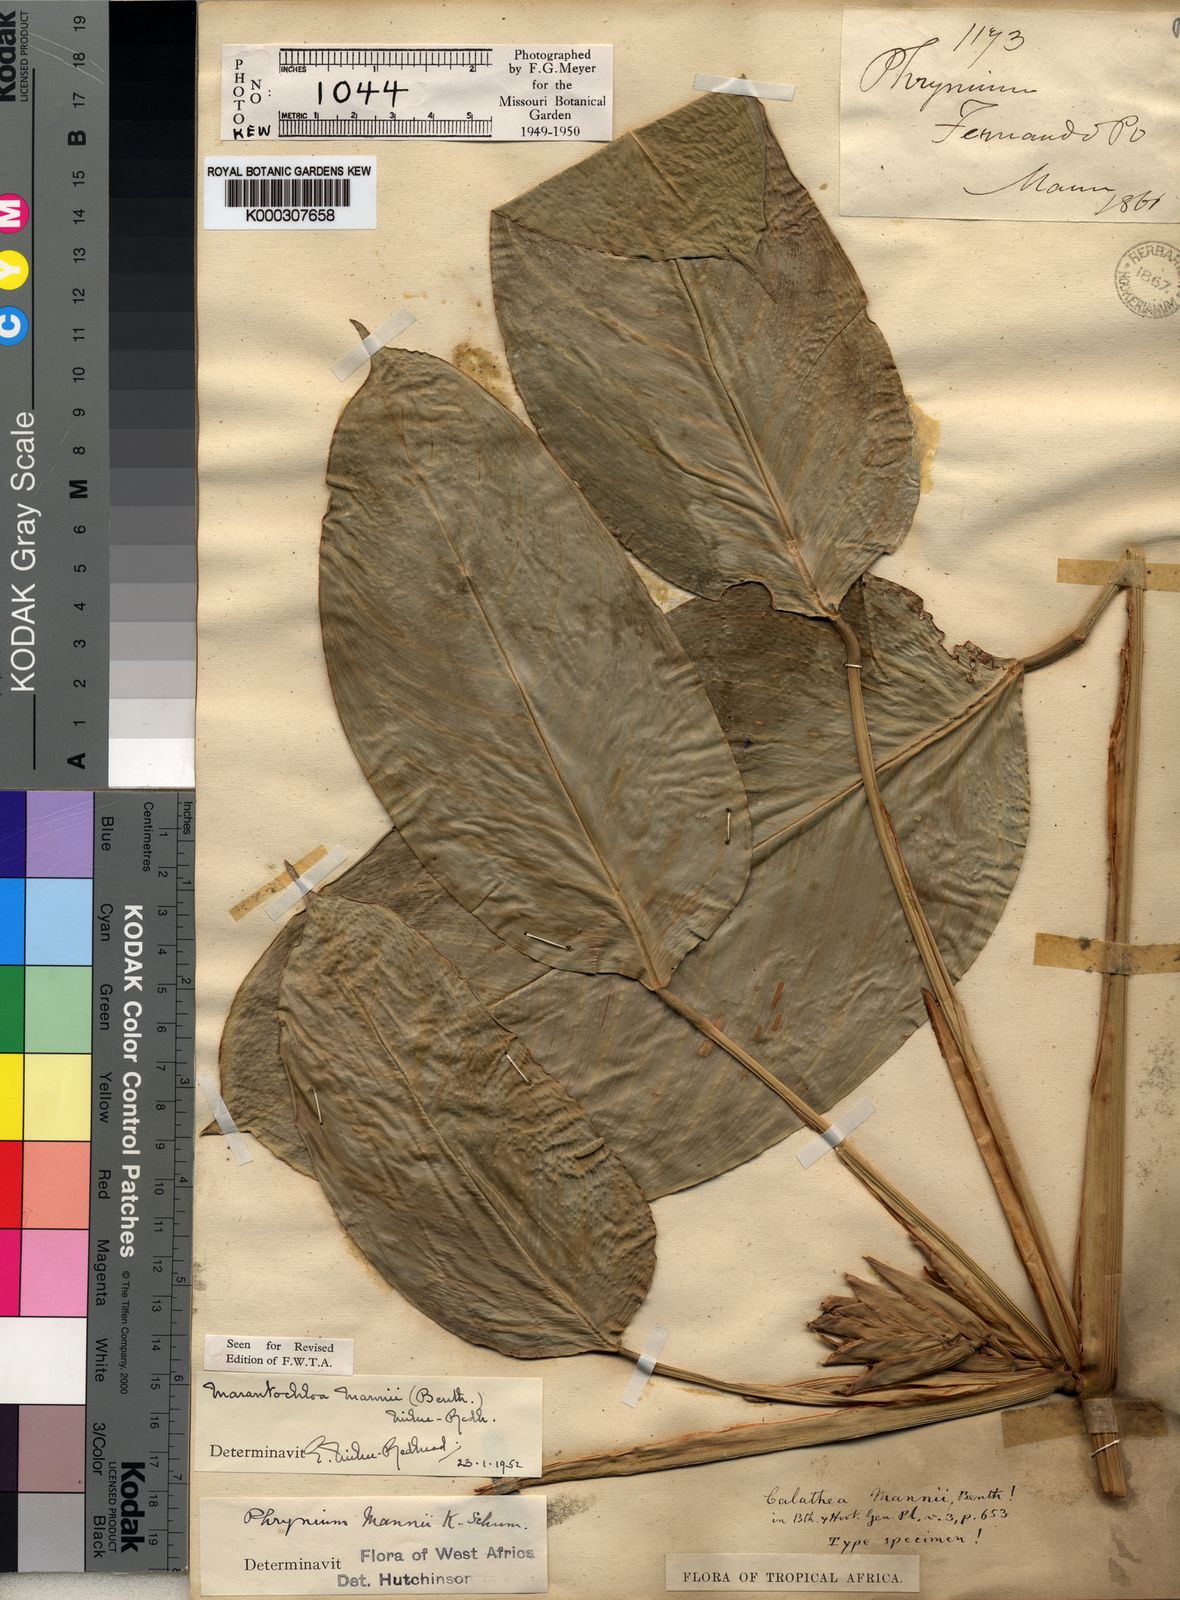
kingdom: Plantae
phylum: Tracheophyta
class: Liliopsida
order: Zingiberales
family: Marantaceae
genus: Marantochloa
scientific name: Marantochloa ramosissima
